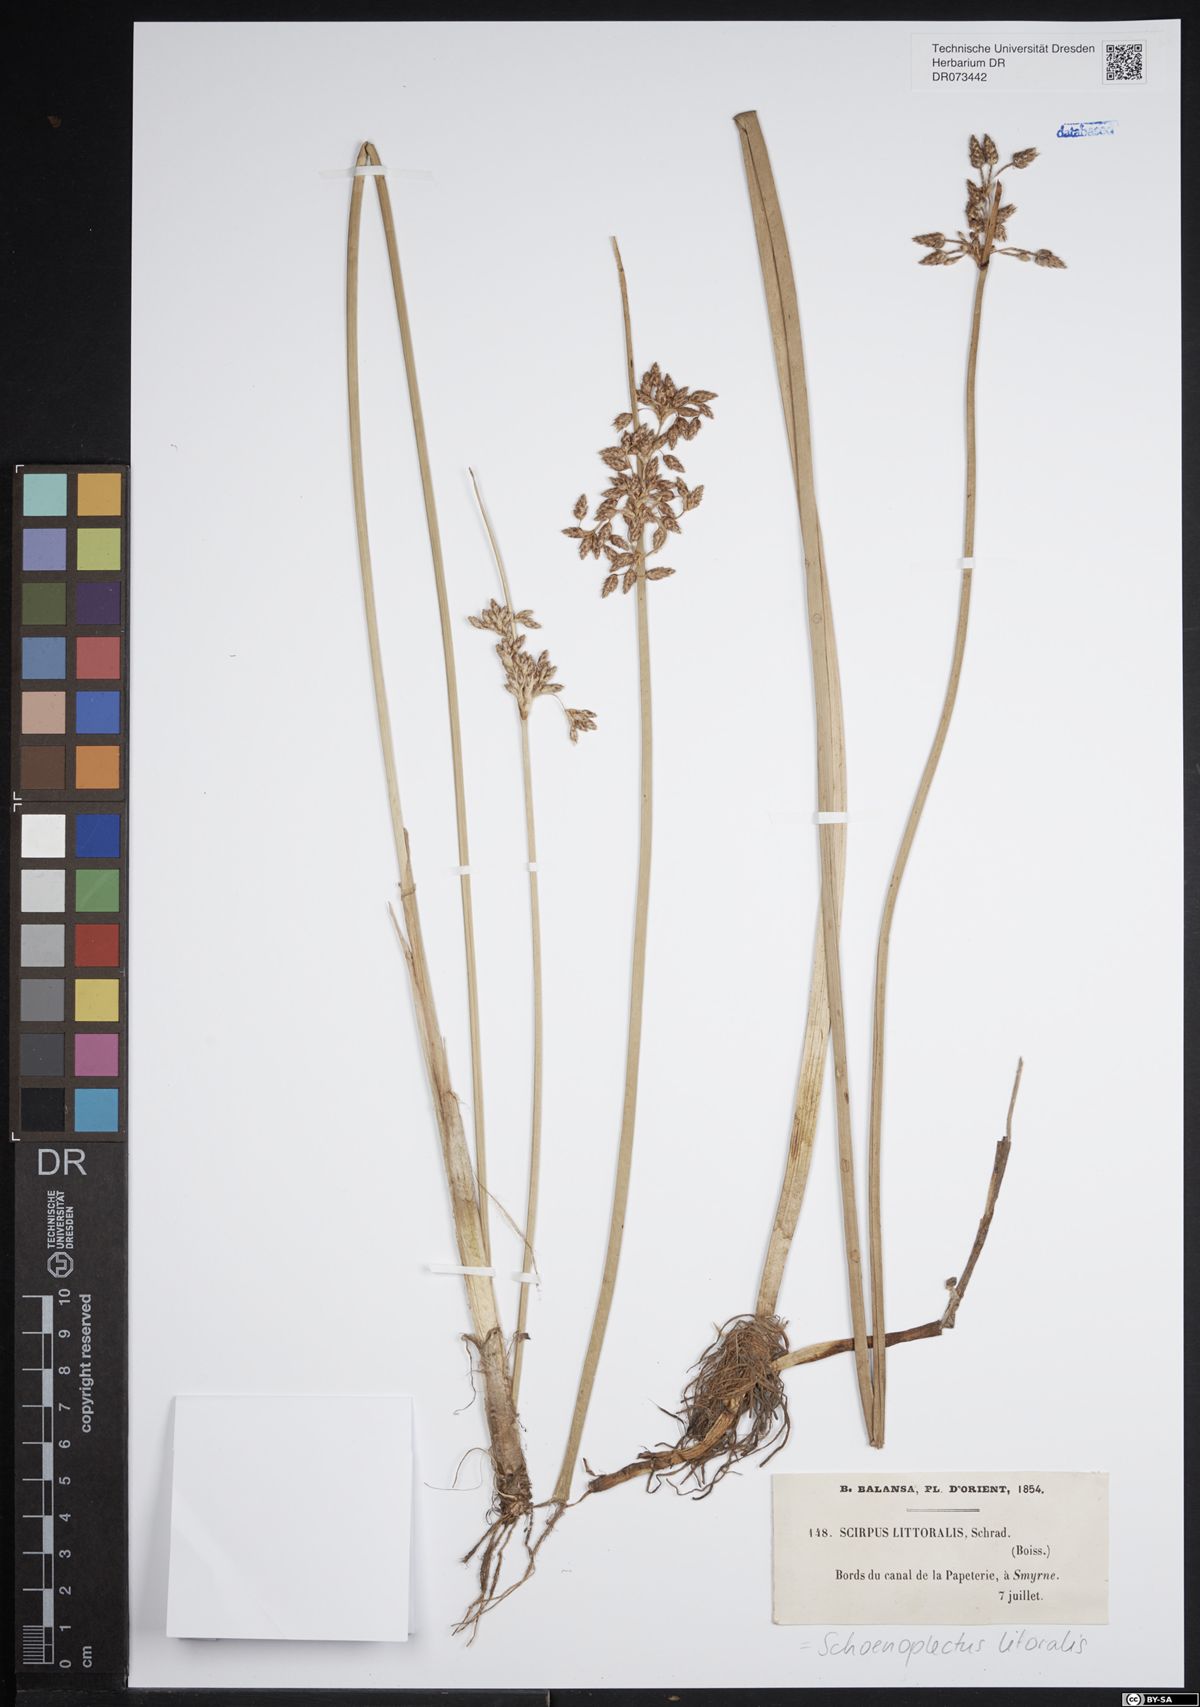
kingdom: Plantae
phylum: Tracheophyta
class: Liliopsida
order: Poales
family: Cyperaceae
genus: Schoenoplectus
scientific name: Schoenoplectus litoralis
